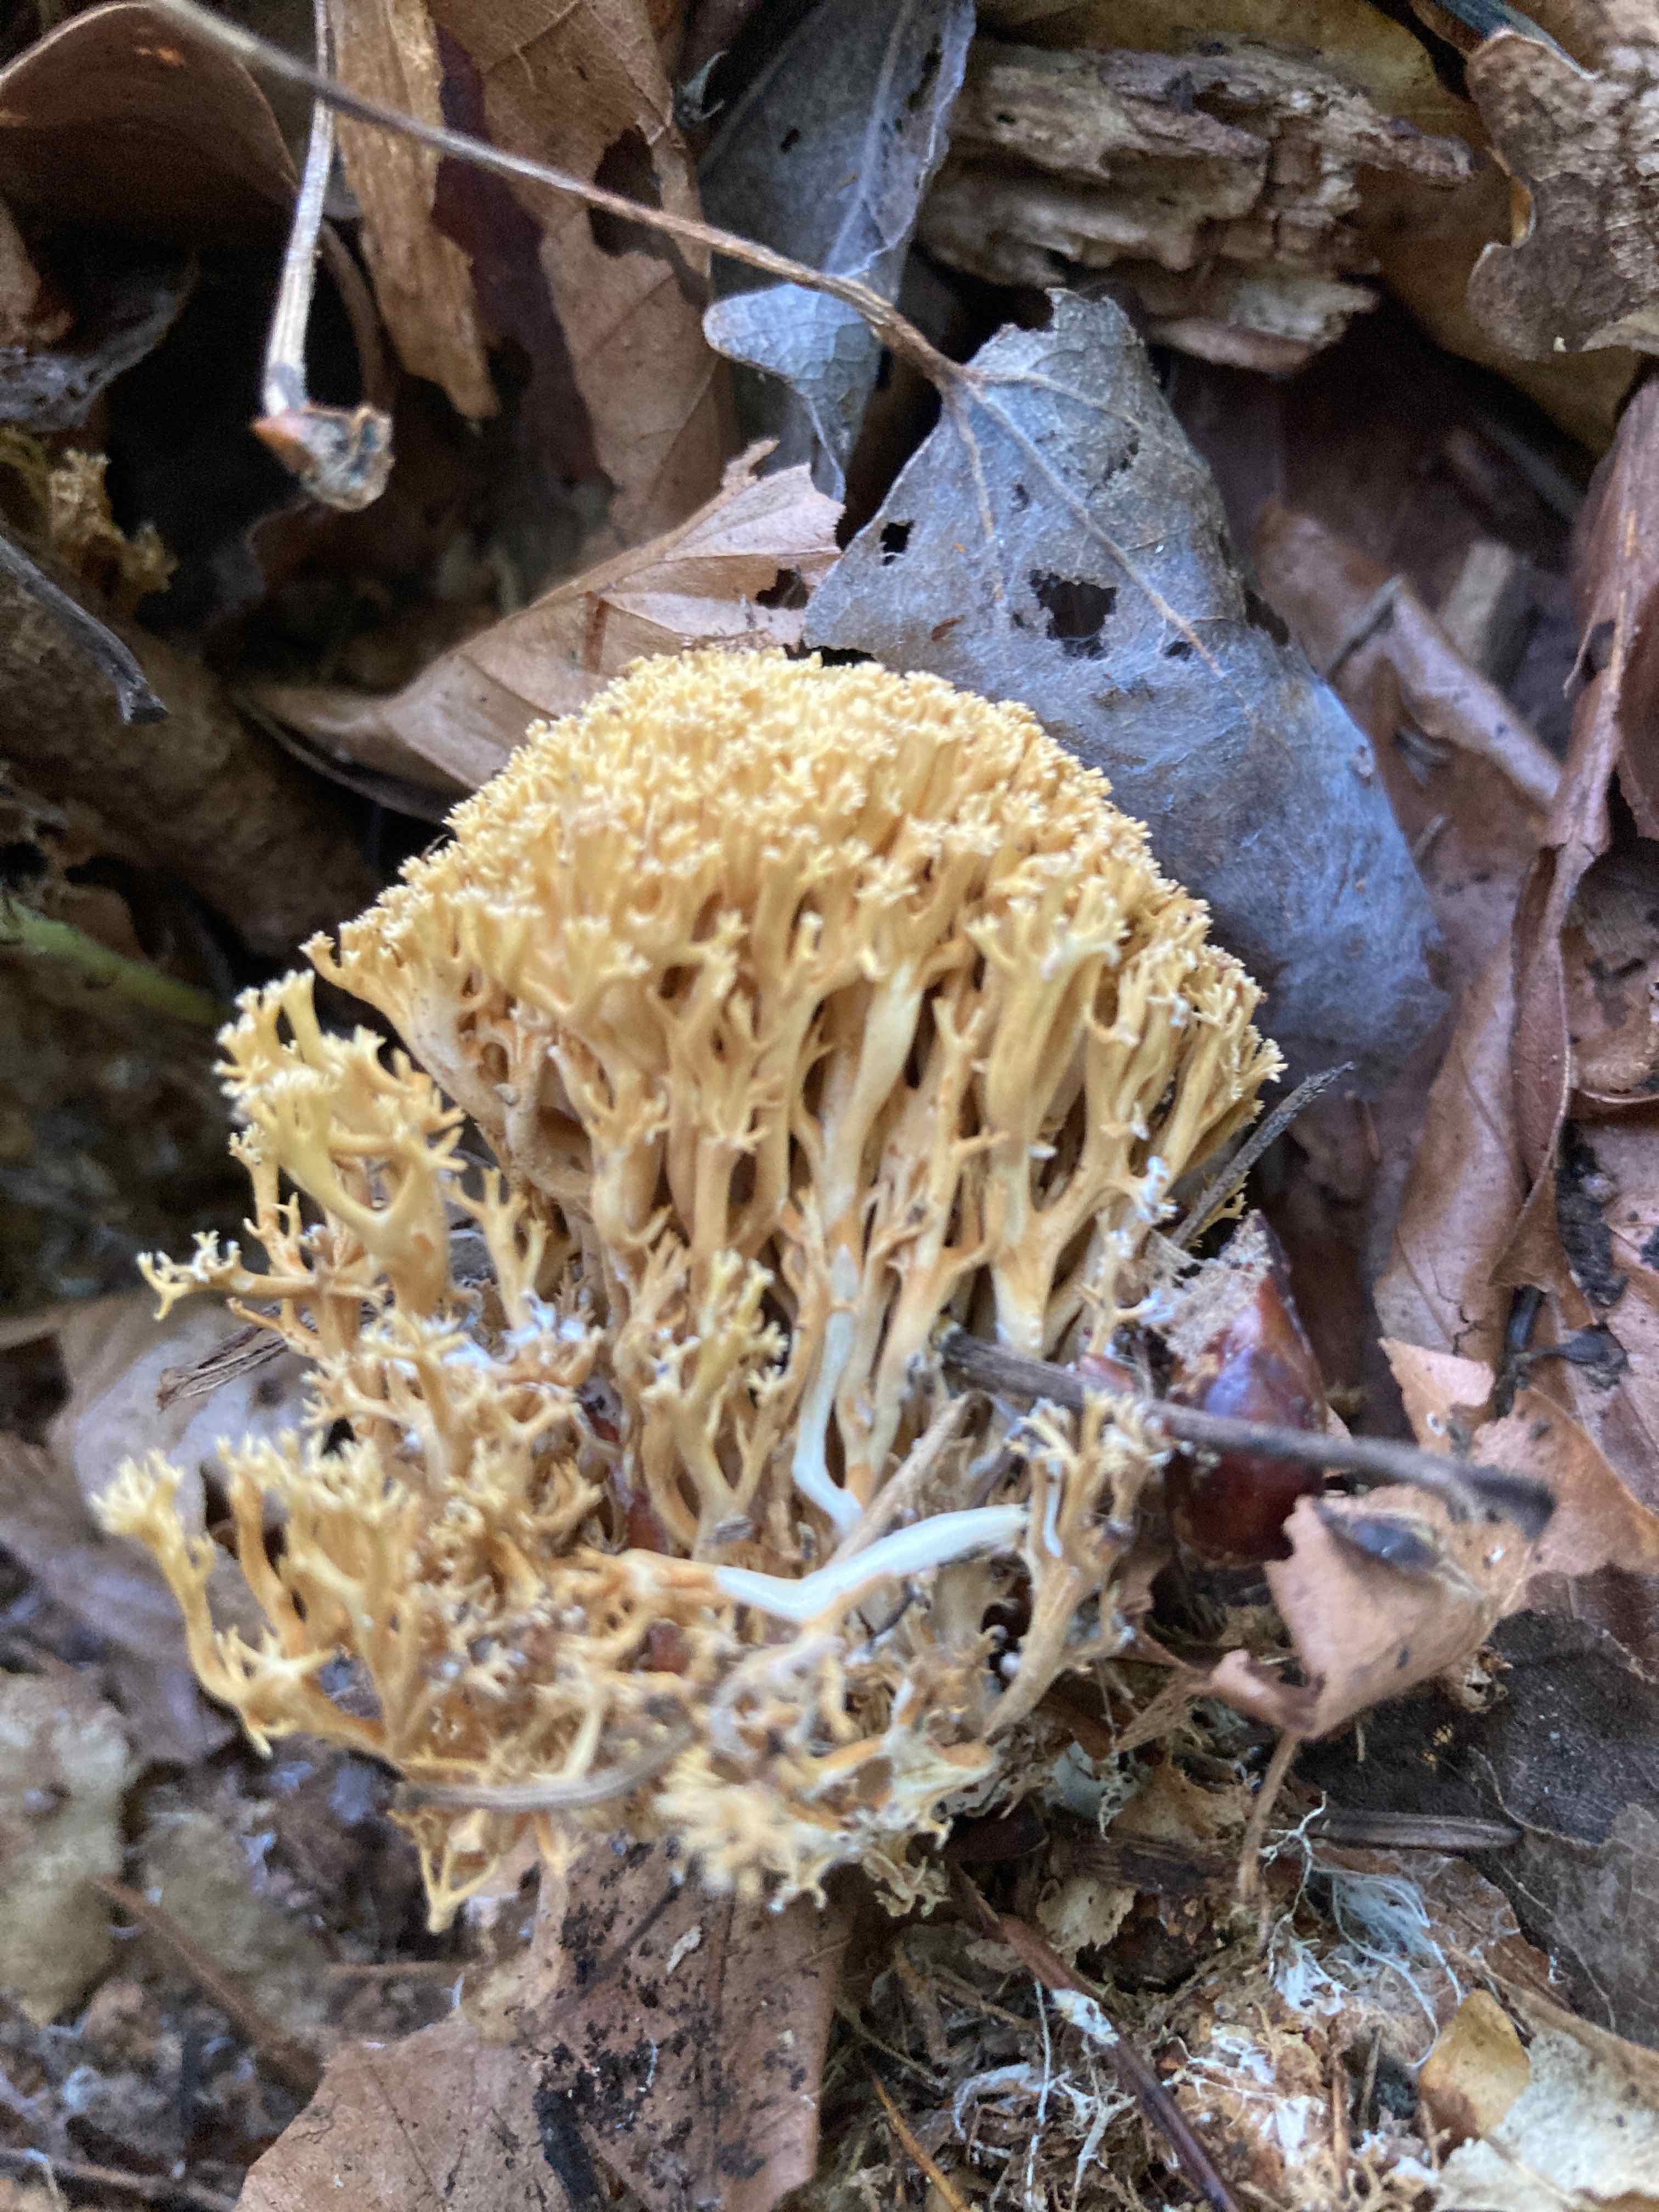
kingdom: Fungi
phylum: Basidiomycota
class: Agaricomycetes
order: Gomphales
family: Gomphaceae
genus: Phaeoclavulina
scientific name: Phaeoclavulina flaccida
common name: spinkel koralsvamp
